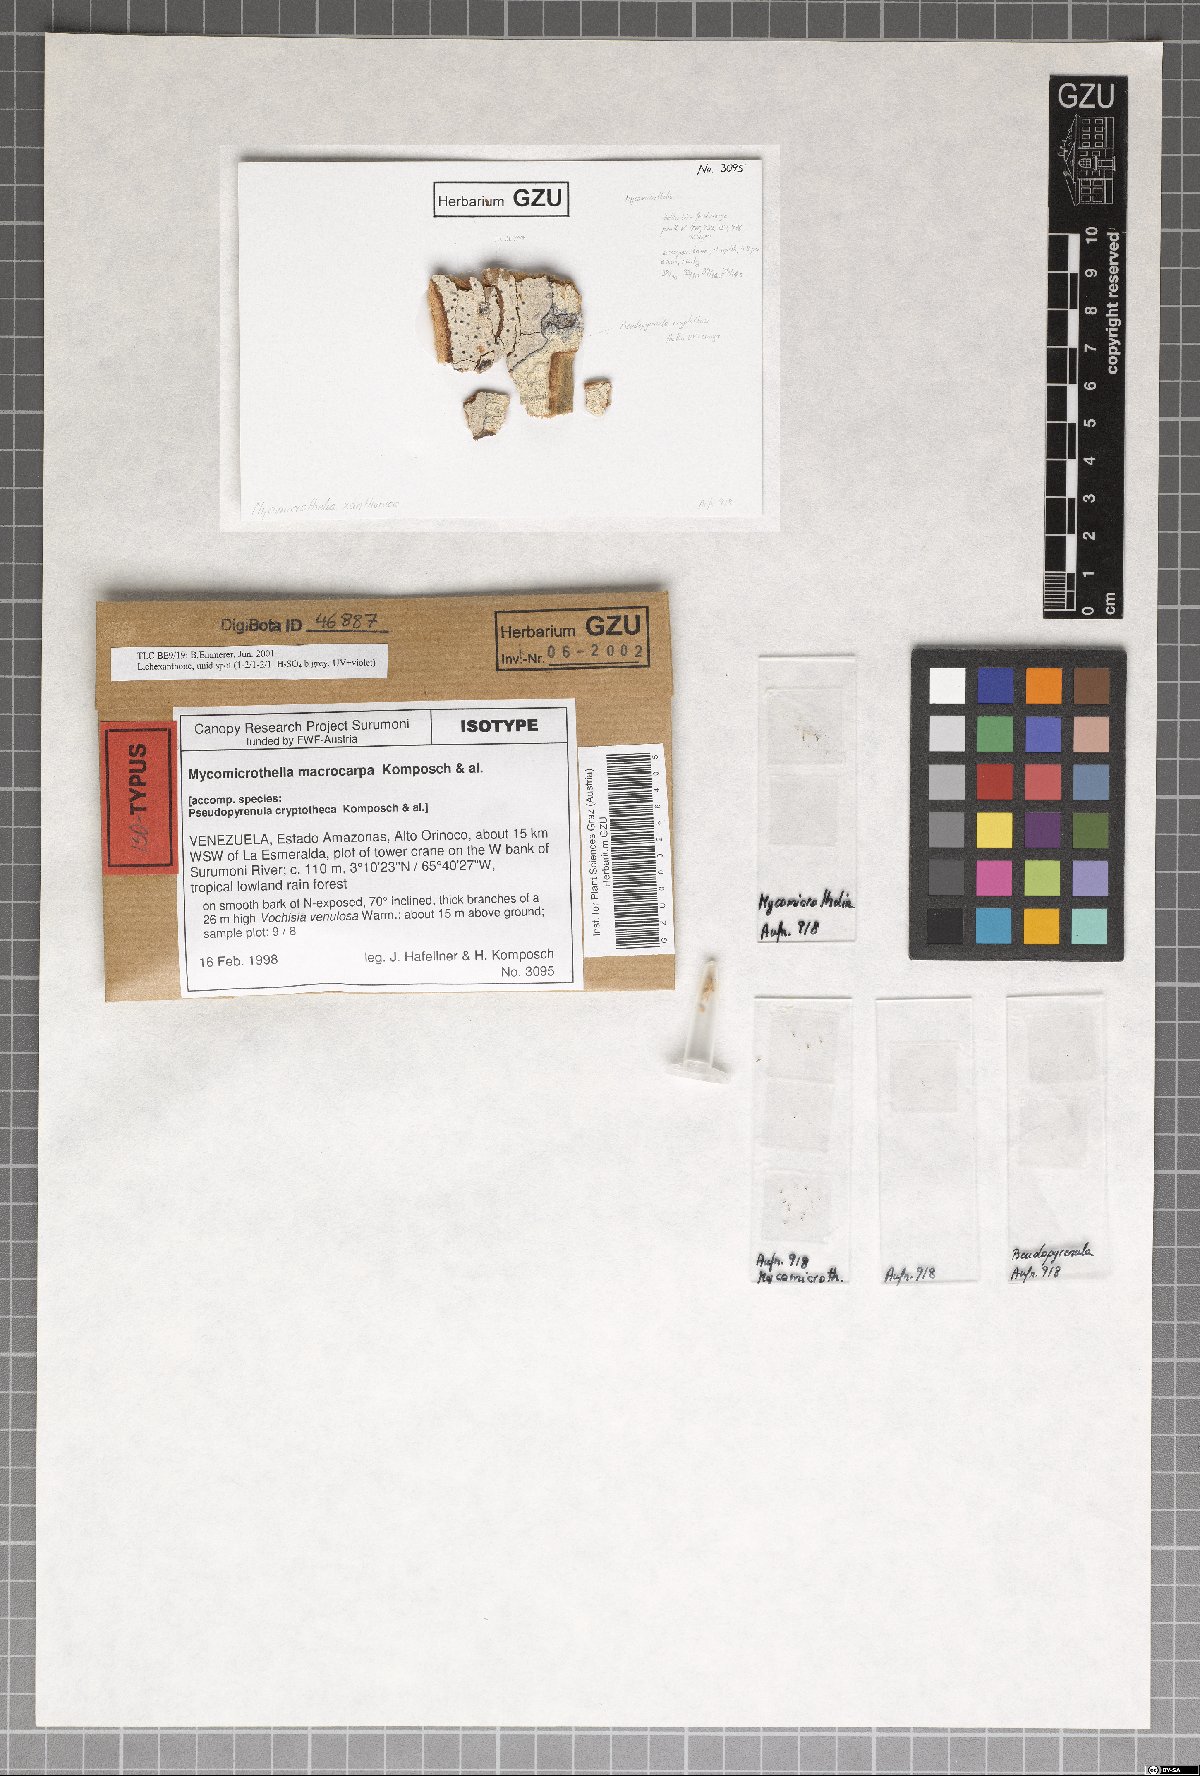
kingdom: Fungi
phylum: Ascomycota
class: Dothideomycetes
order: Trypetheliales
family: Trypetheliaceae
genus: Bogoriella
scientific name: Bogoriella macrocarpa
